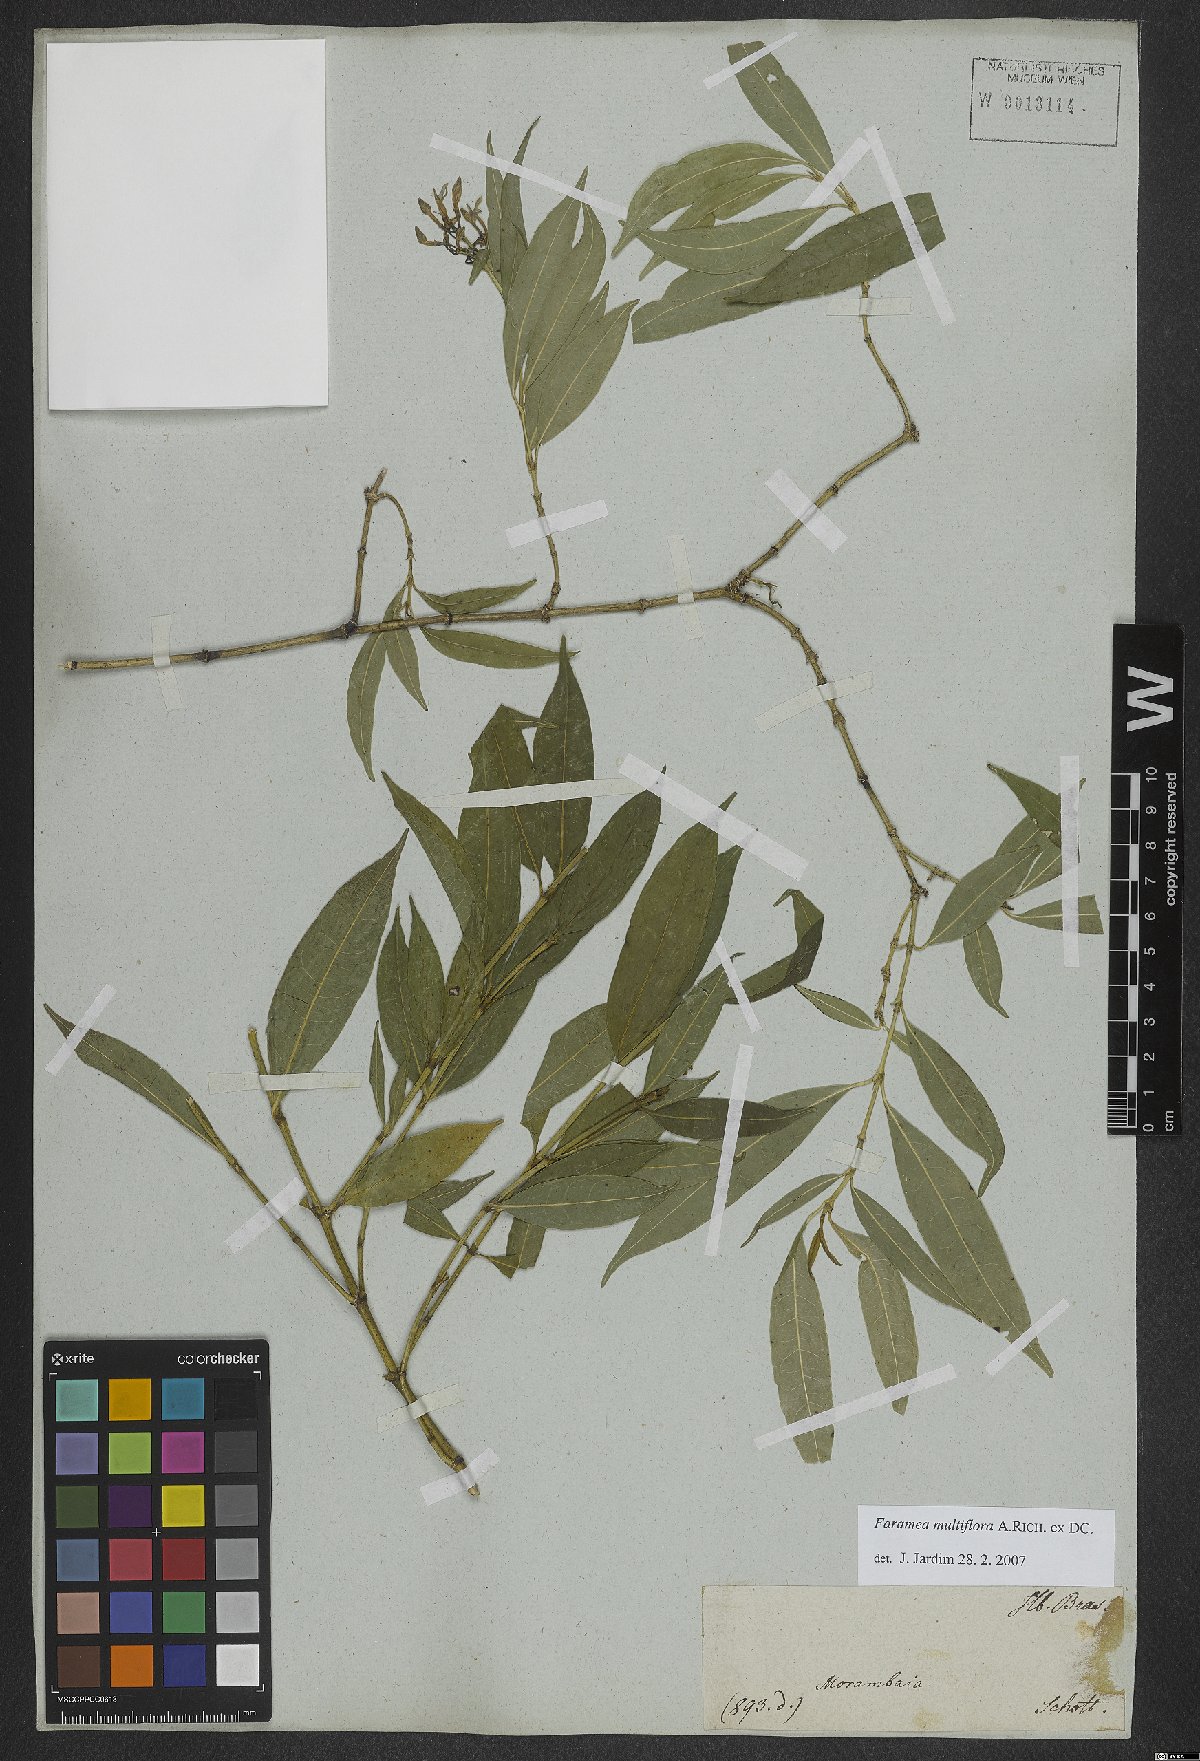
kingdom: Plantae
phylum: Tracheophyta
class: Magnoliopsida
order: Gentianales
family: Rubiaceae
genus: Faramea
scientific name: Faramea multiflora
